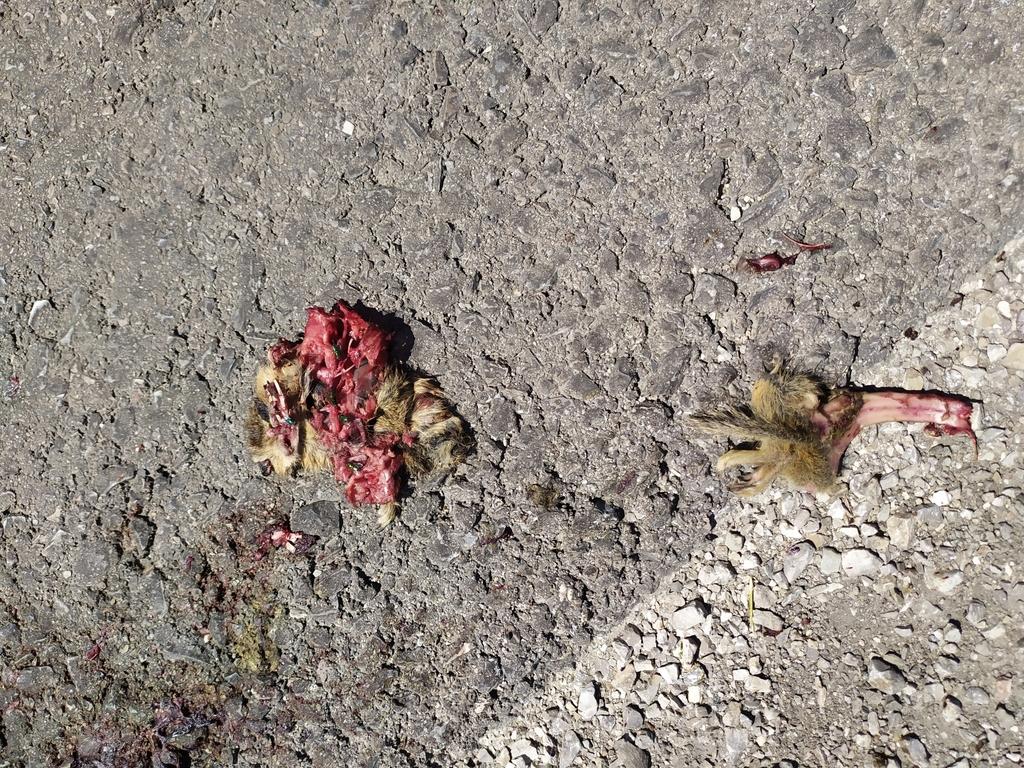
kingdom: Animalia
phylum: Chordata
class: Mammalia
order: Rodentia
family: Sciuridae
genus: Spermophilus
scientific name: Spermophilus citellus
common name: European ground squirrel
